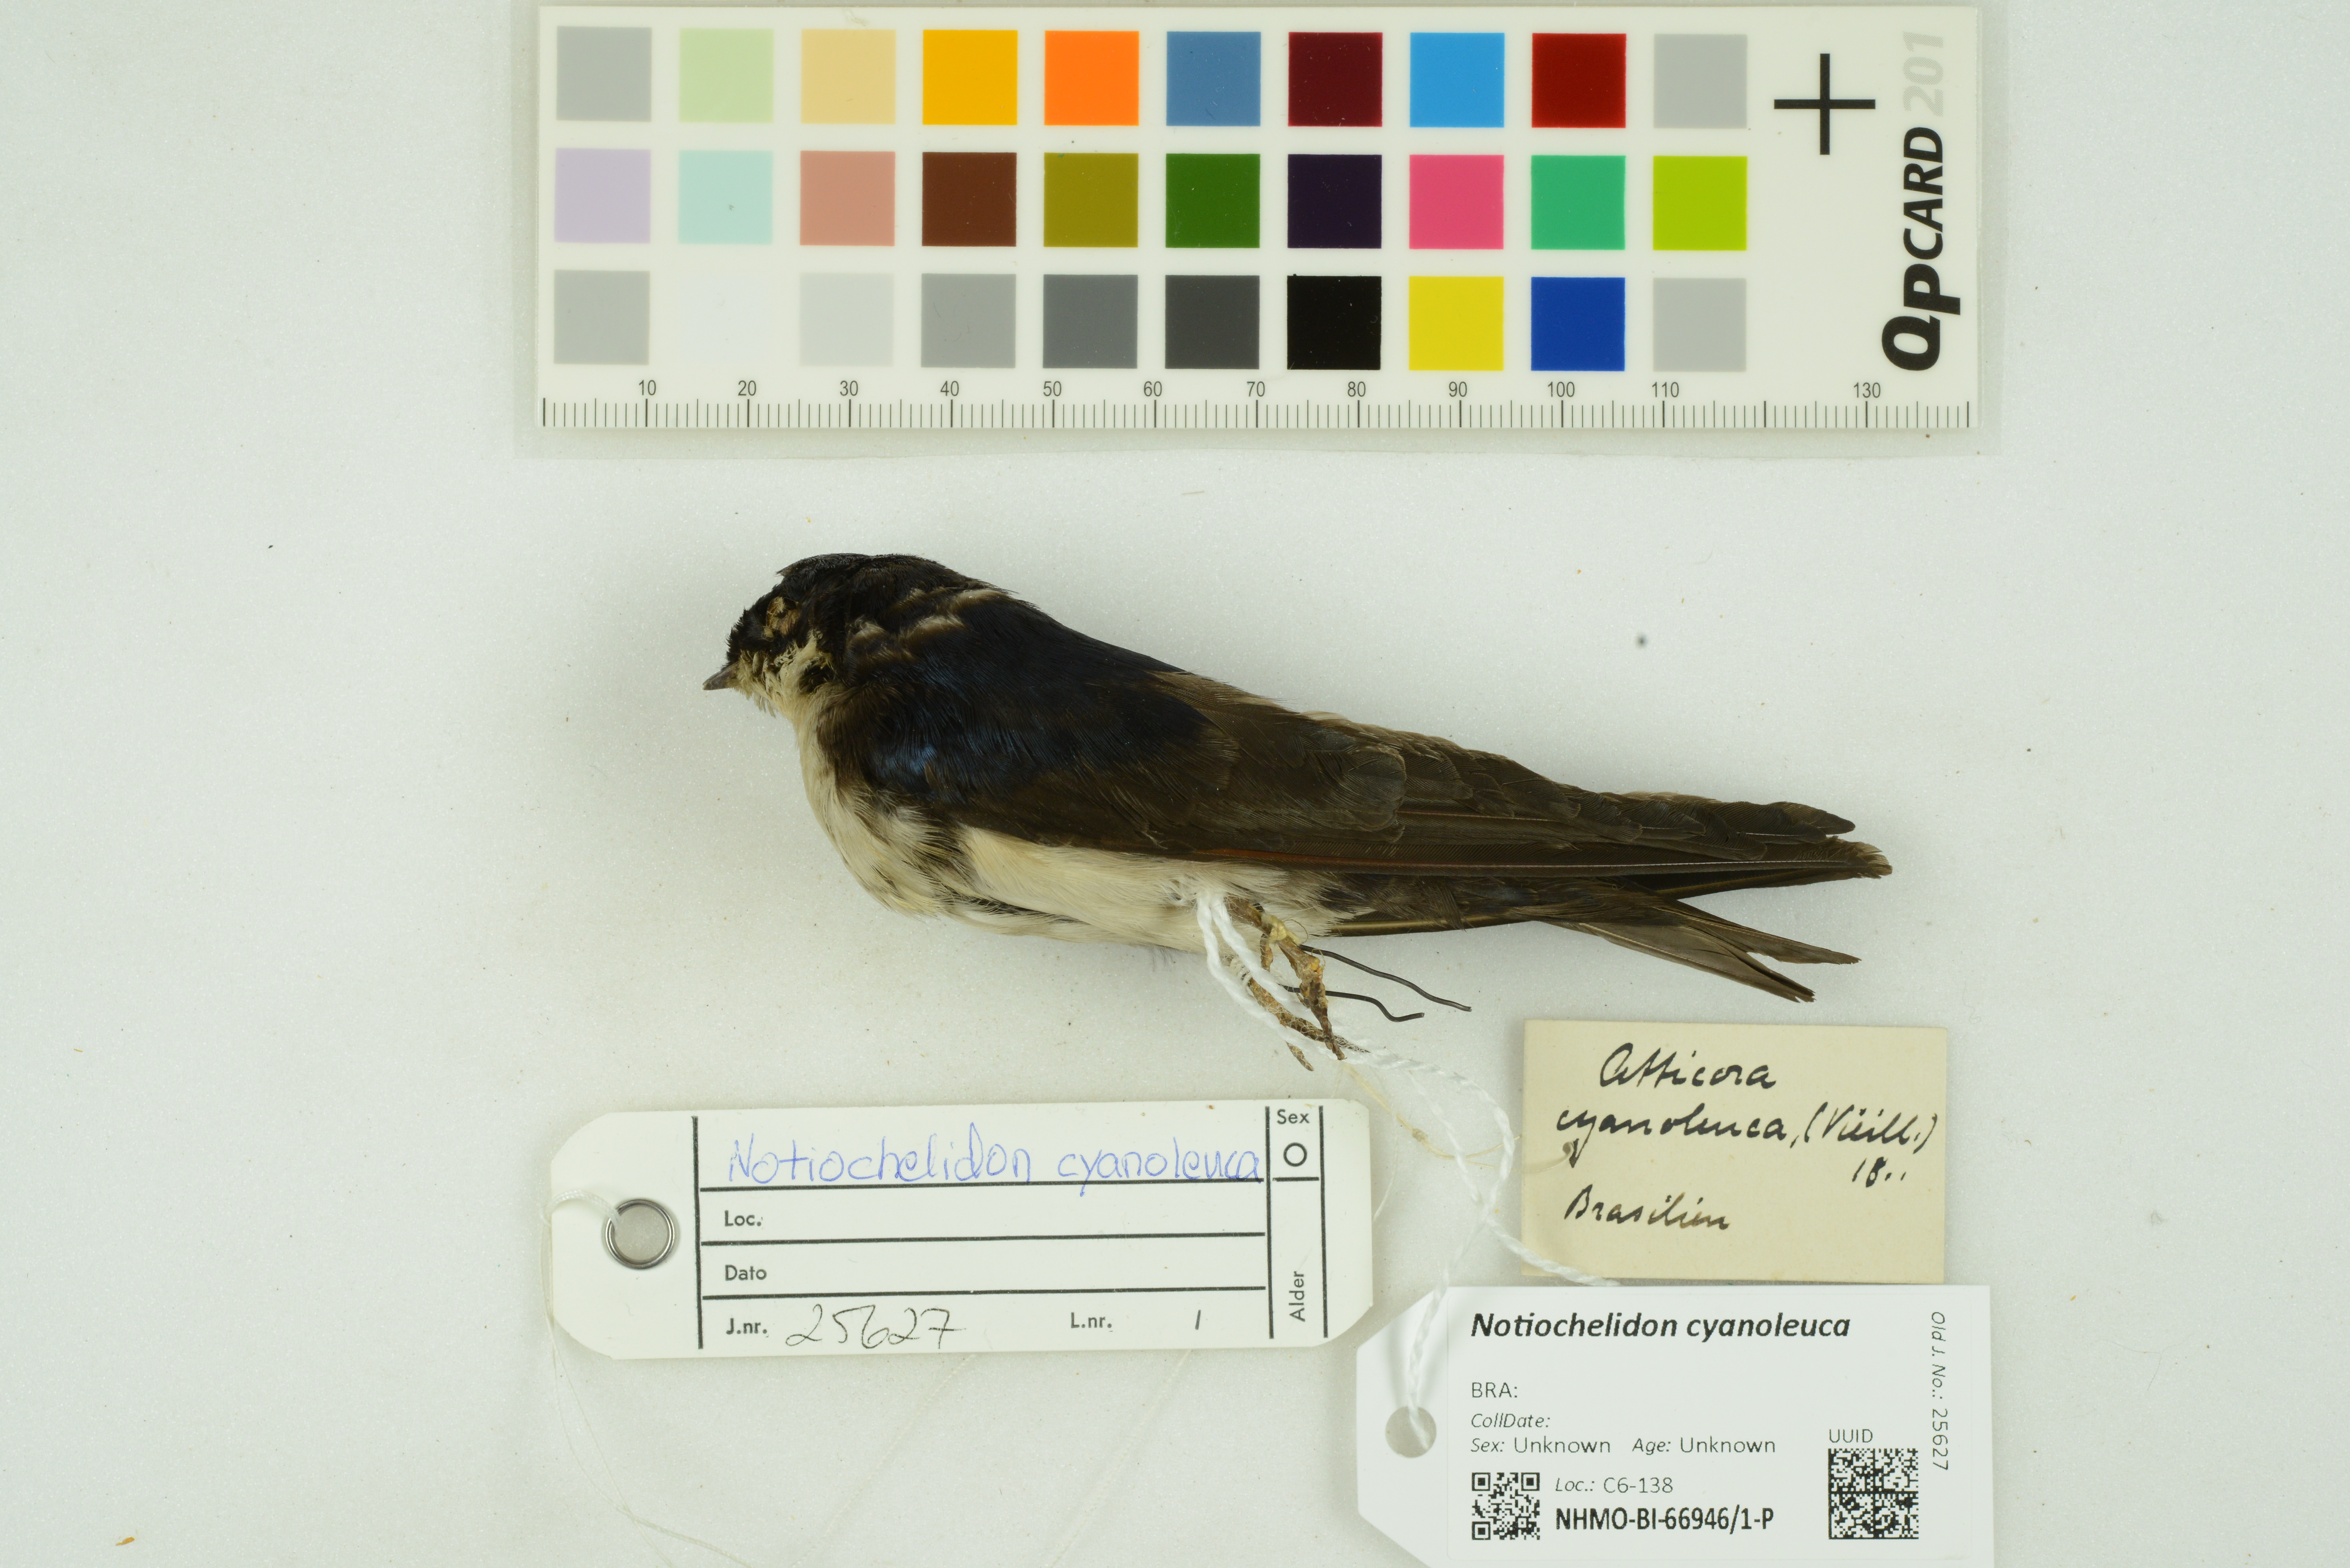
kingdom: Animalia
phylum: Chordata
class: Aves
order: Passeriformes
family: Hirundinidae
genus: Notiochelidon
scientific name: Notiochelidon cyanoleuca
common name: Blue-and-white swallow
